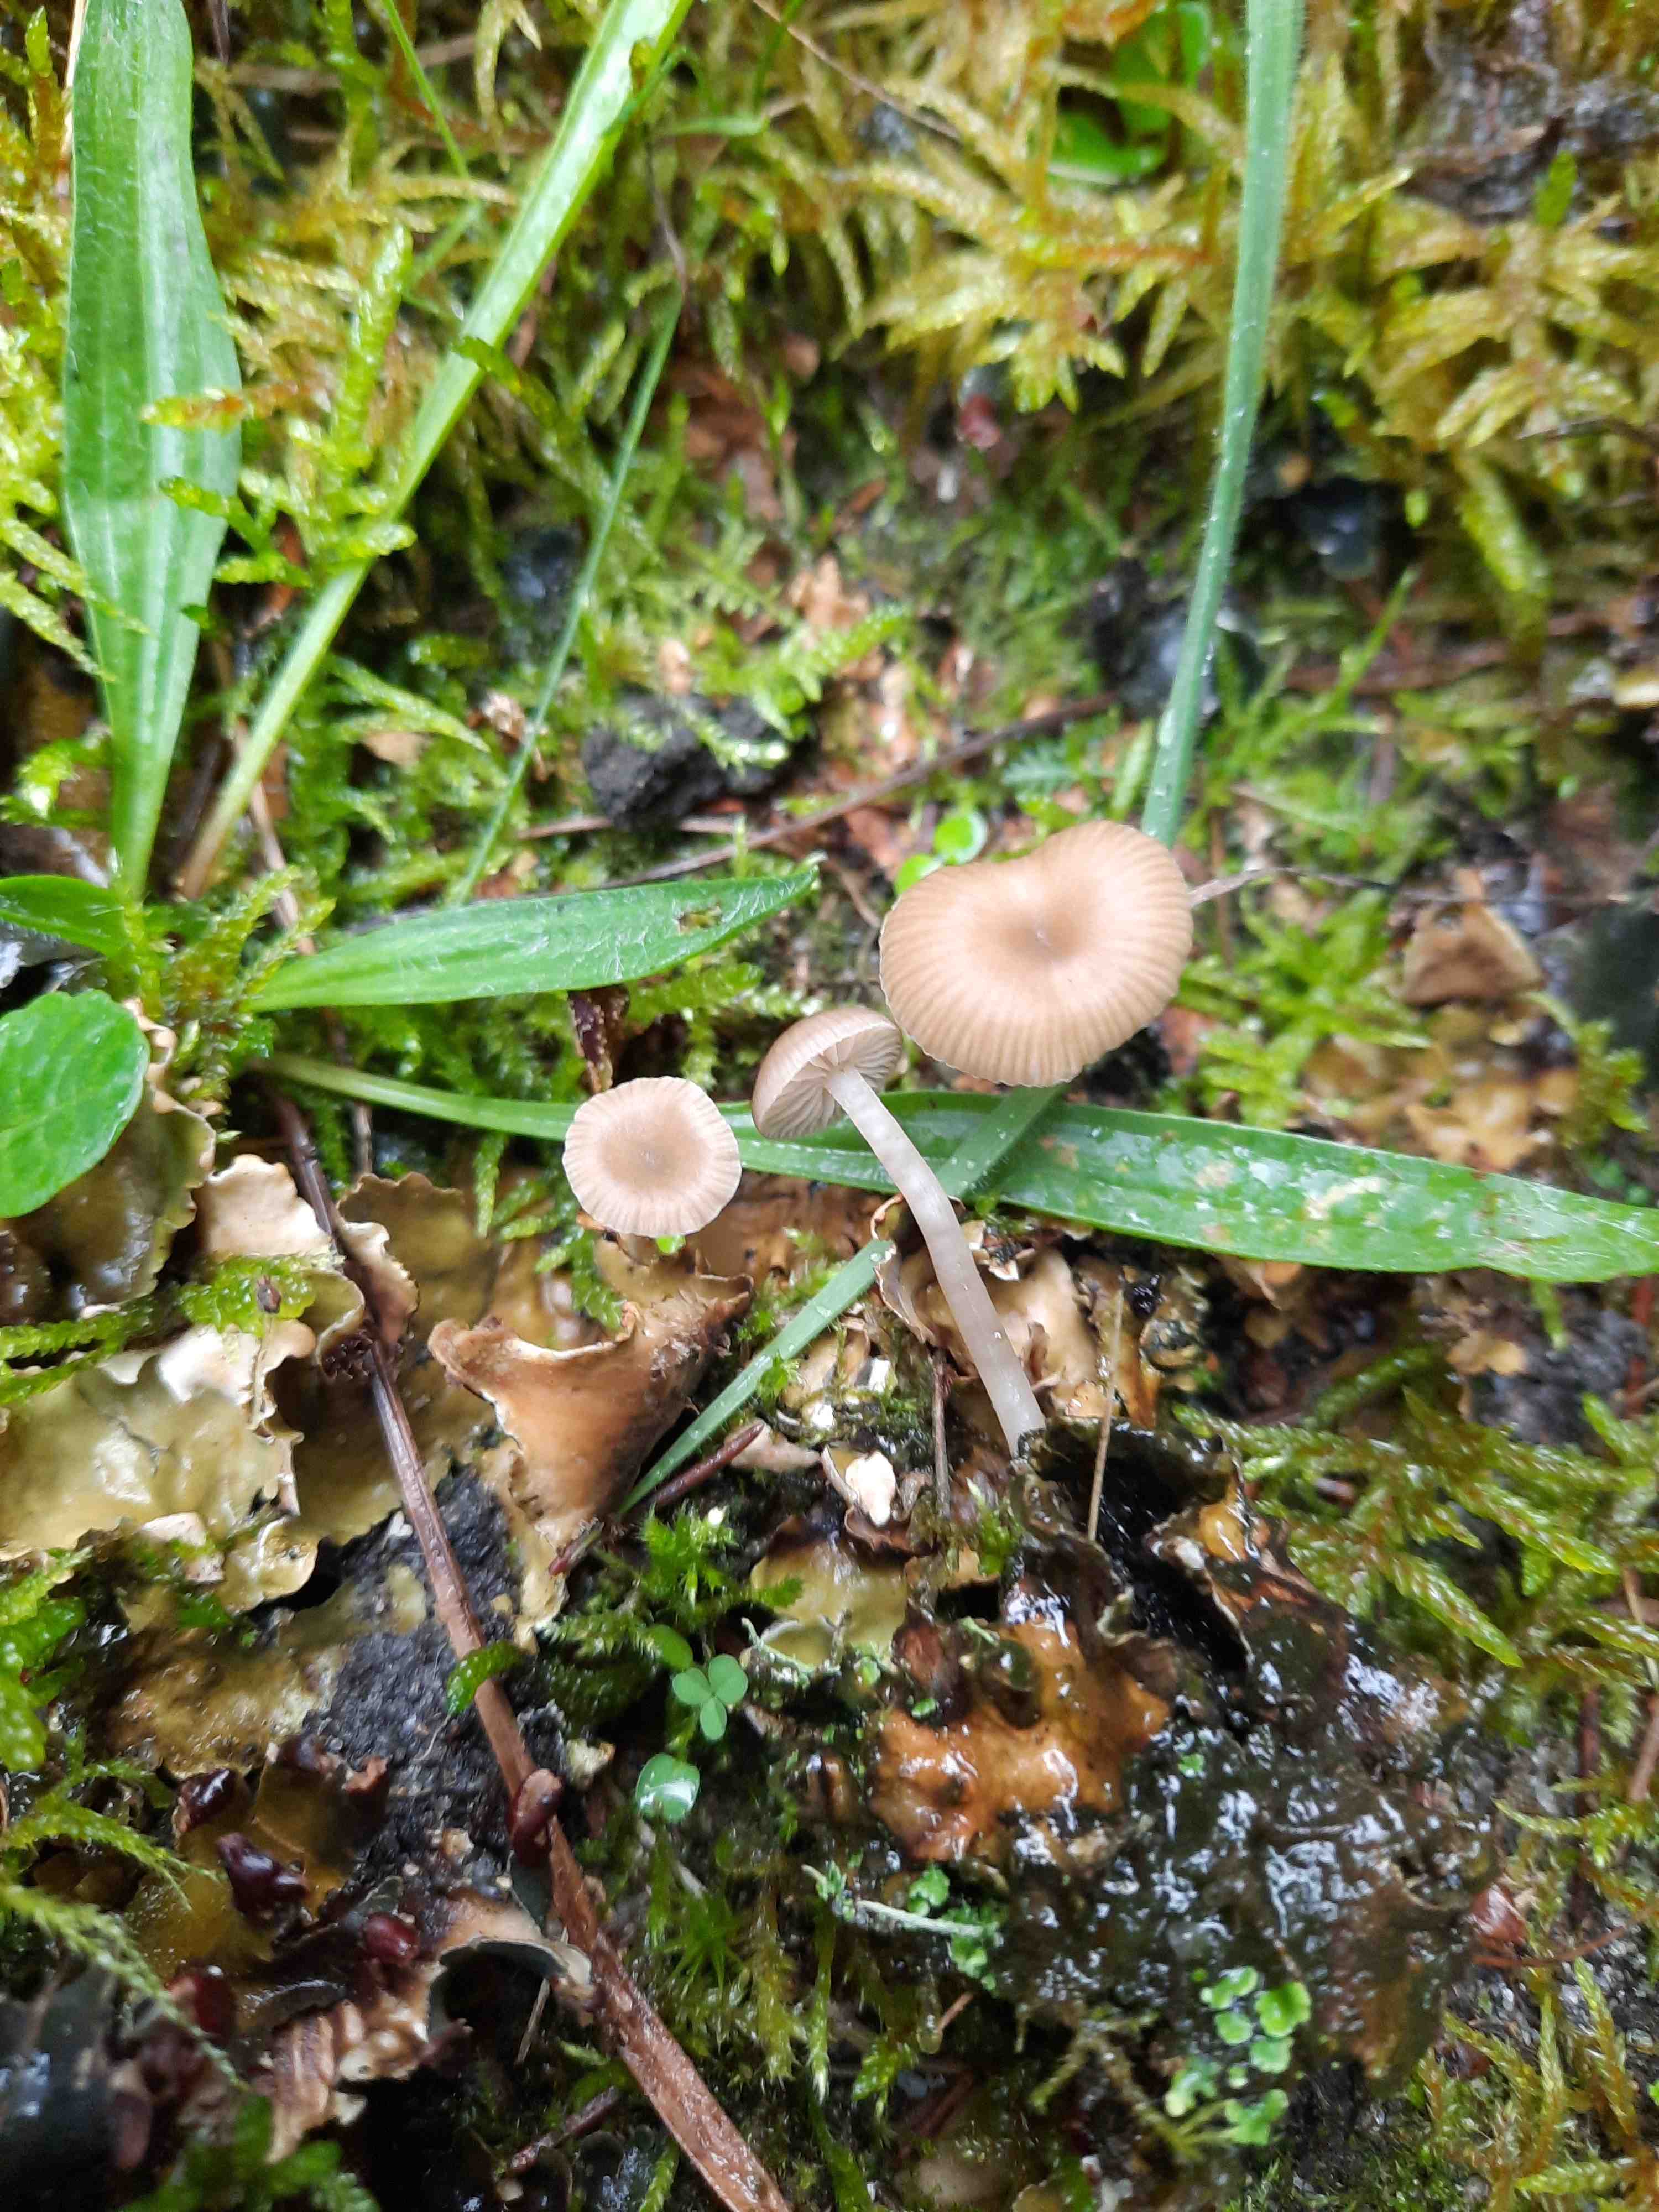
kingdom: Fungi
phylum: Basidiomycota
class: Agaricomycetes
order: Agaricales
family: Tricholomataceae
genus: Gamundia
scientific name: Gamundia xerophila
